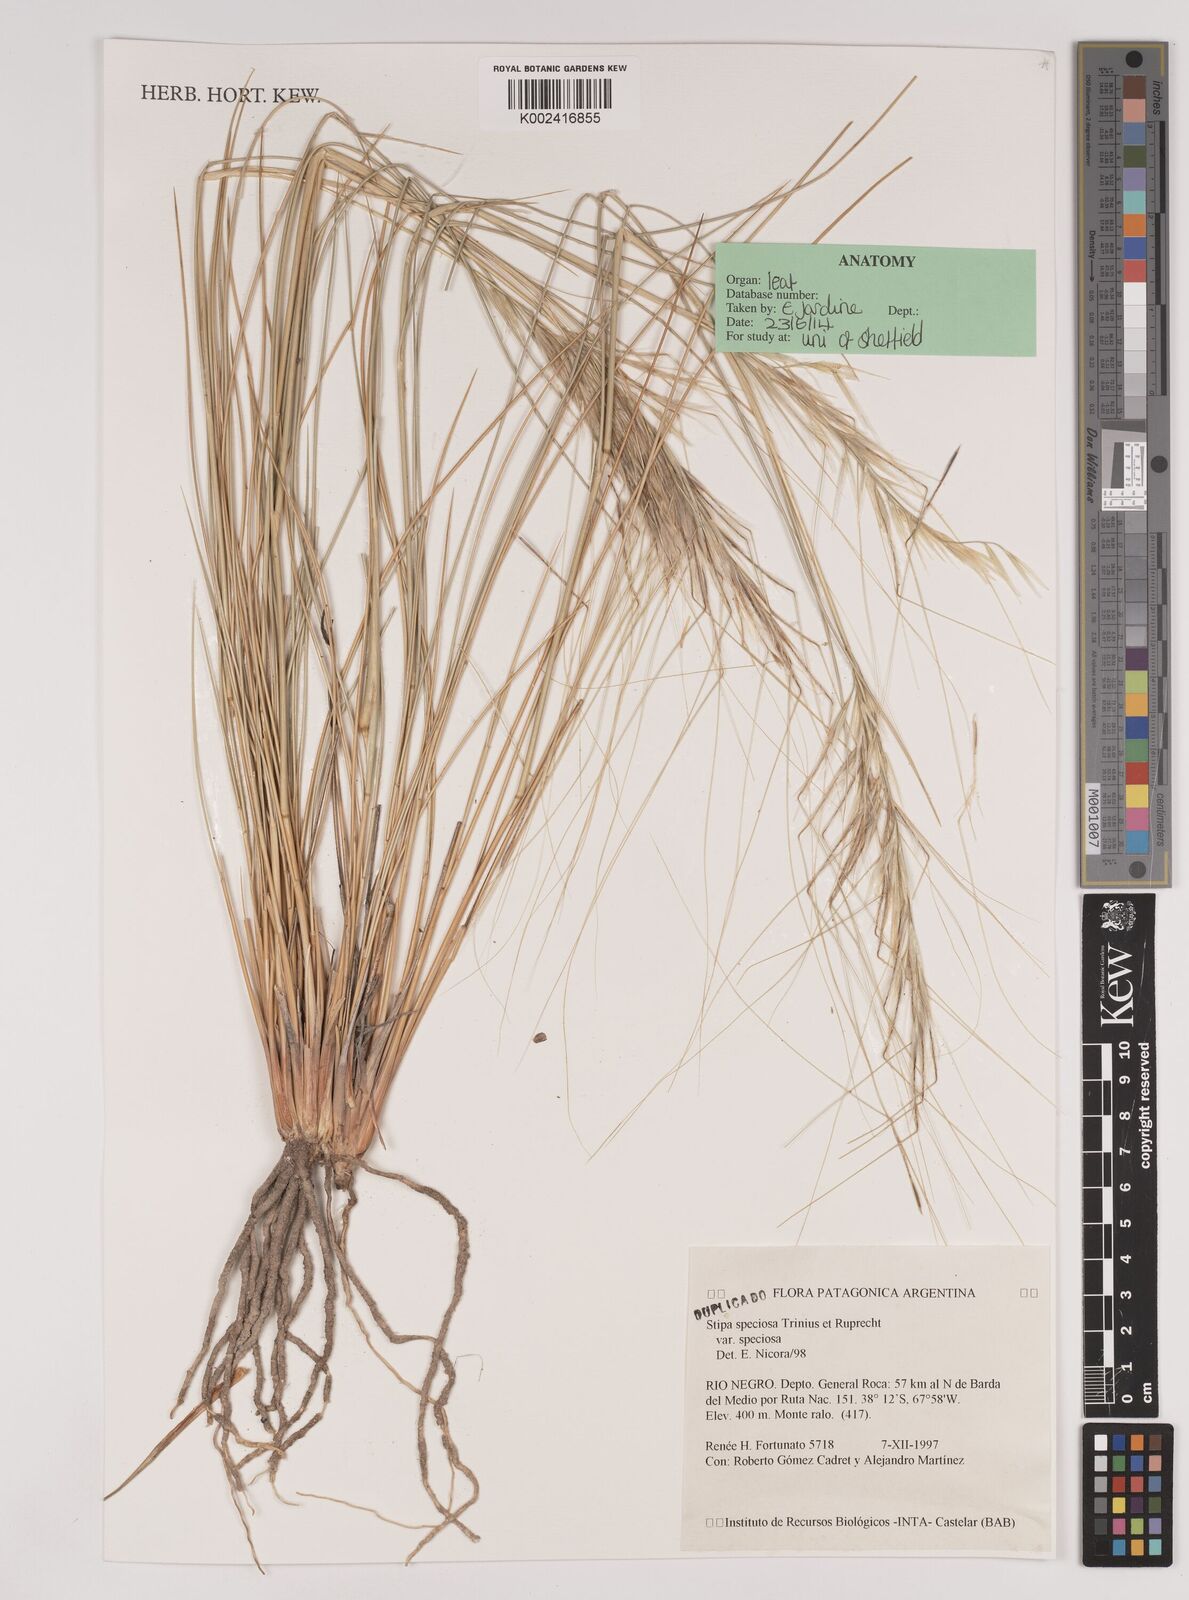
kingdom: Plantae
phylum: Tracheophyta
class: Liliopsida
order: Poales
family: Poaceae
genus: Pappostipa
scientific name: Pappostipa speciosa
